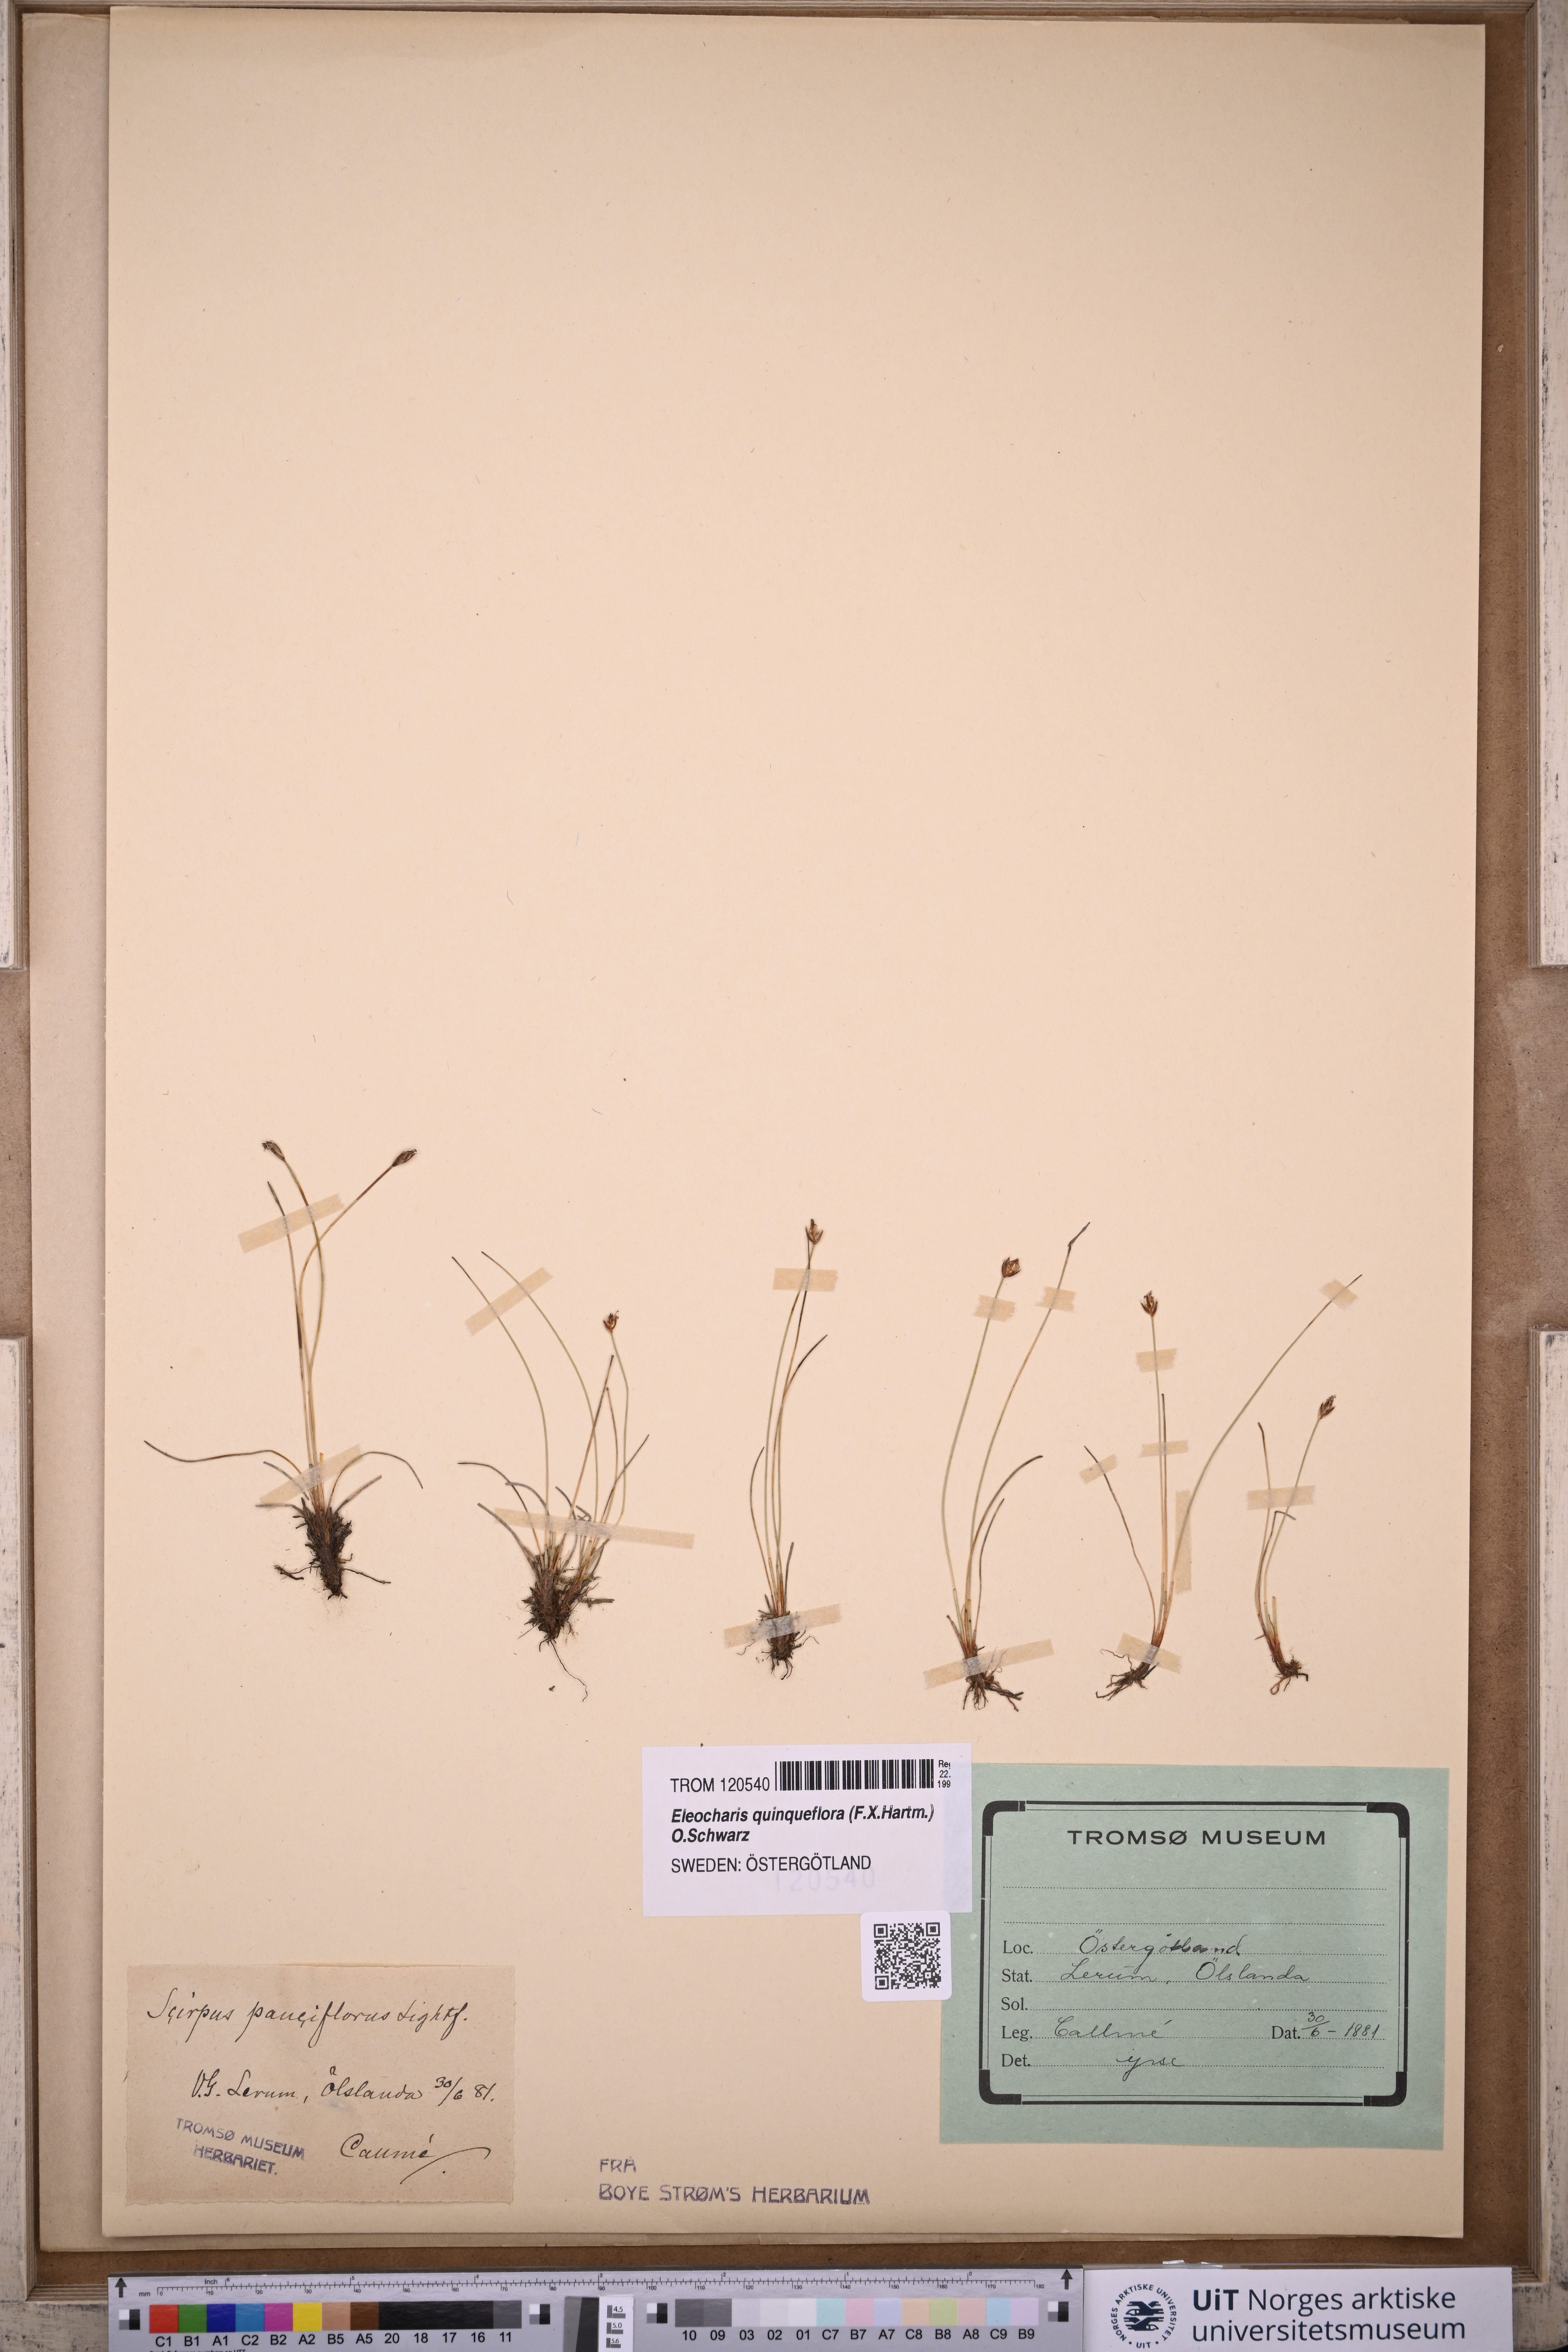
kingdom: Plantae
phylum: Tracheophyta
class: Liliopsida
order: Poales
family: Cyperaceae
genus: Eleocharis
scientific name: Eleocharis quinqueflora
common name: Few-flowered spike-rush
